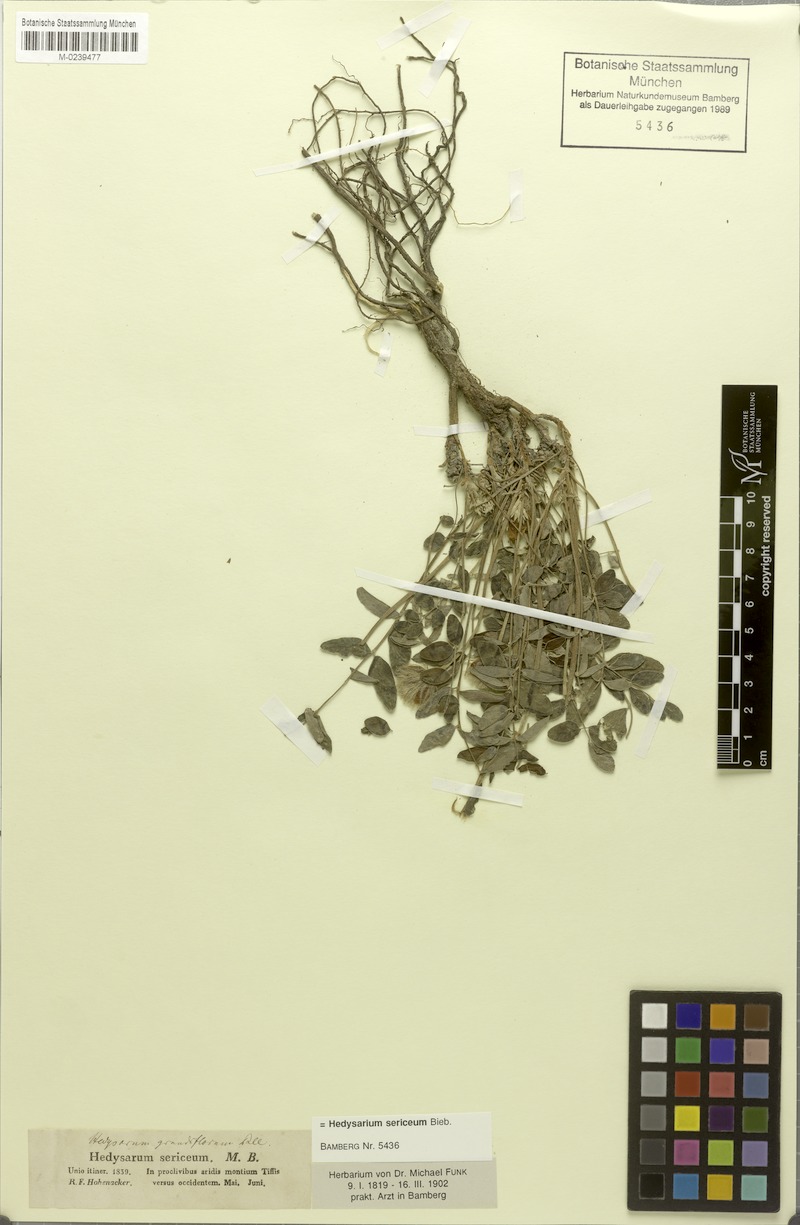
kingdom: Plantae
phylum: Tracheophyta
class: Magnoliopsida
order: Fabales
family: Fabaceae
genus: Hedysarum
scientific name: Hedysarum grandiflorum
